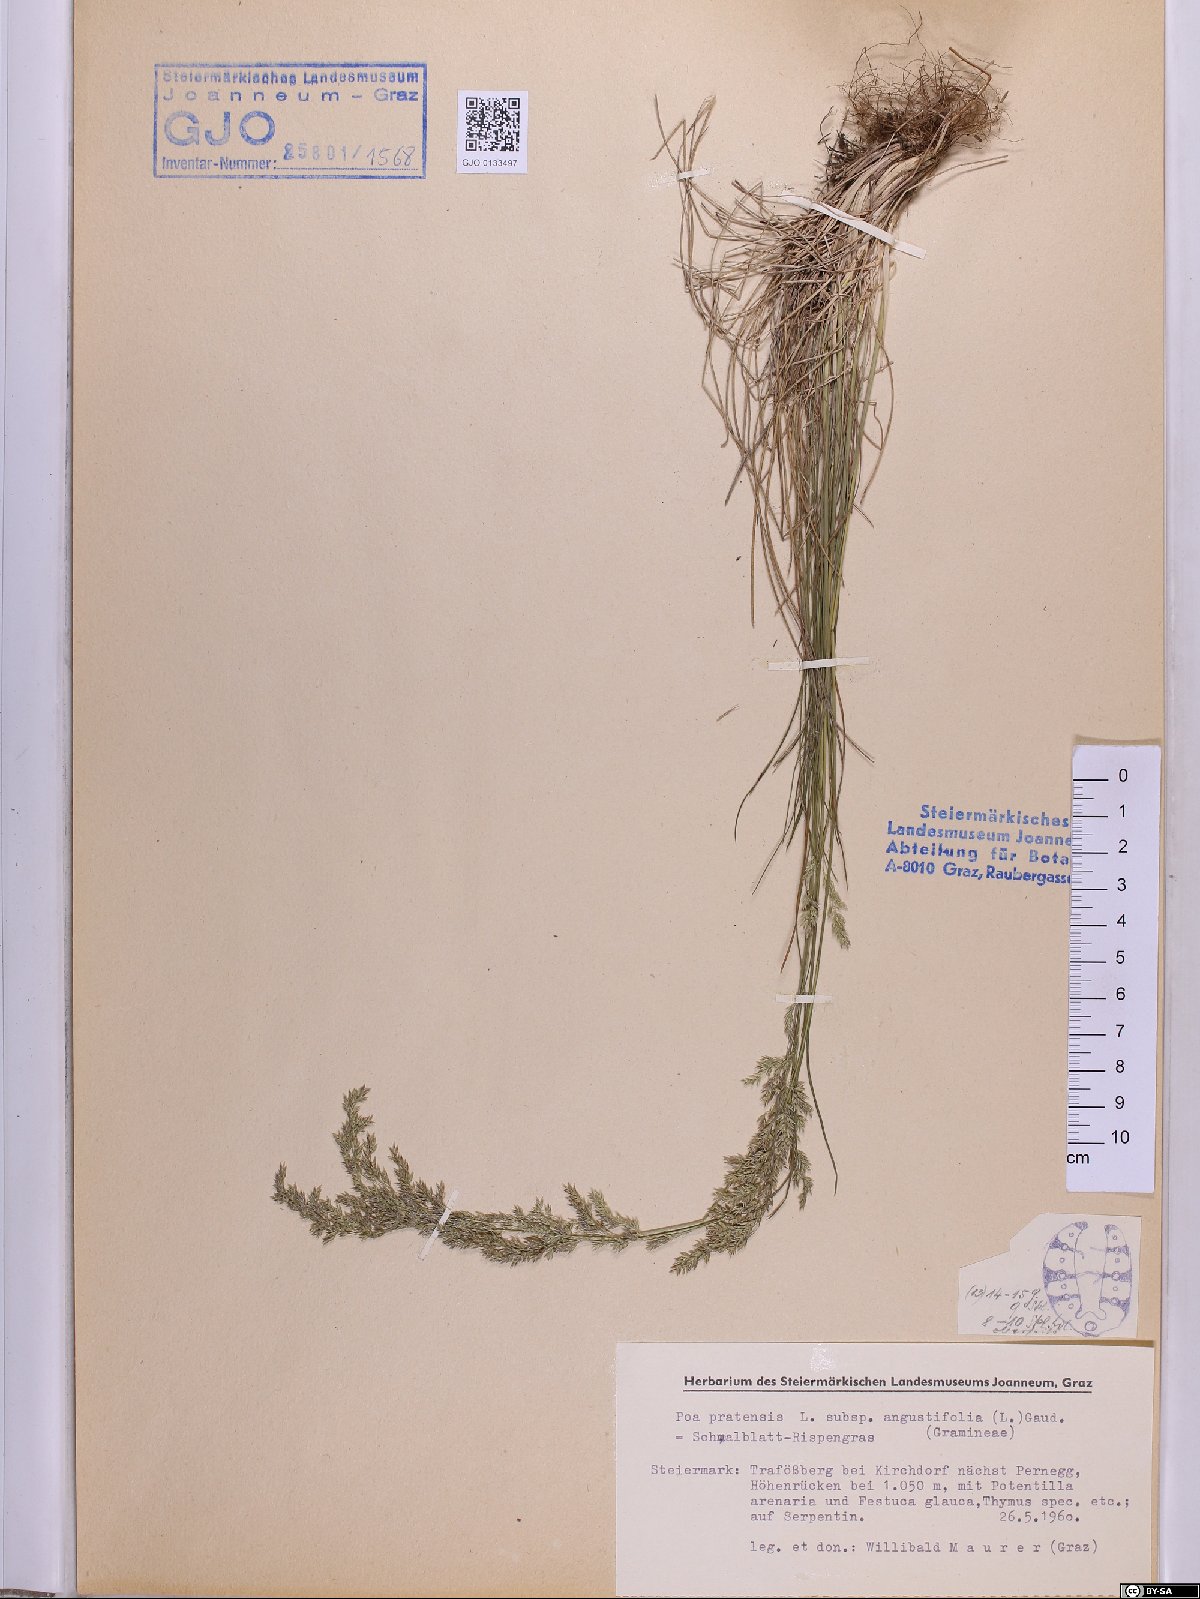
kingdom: Plantae
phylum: Tracheophyta
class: Liliopsida
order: Poales
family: Poaceae
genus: Poa
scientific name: Poa angustifolia
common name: Narrow-leaved meadow-grass
